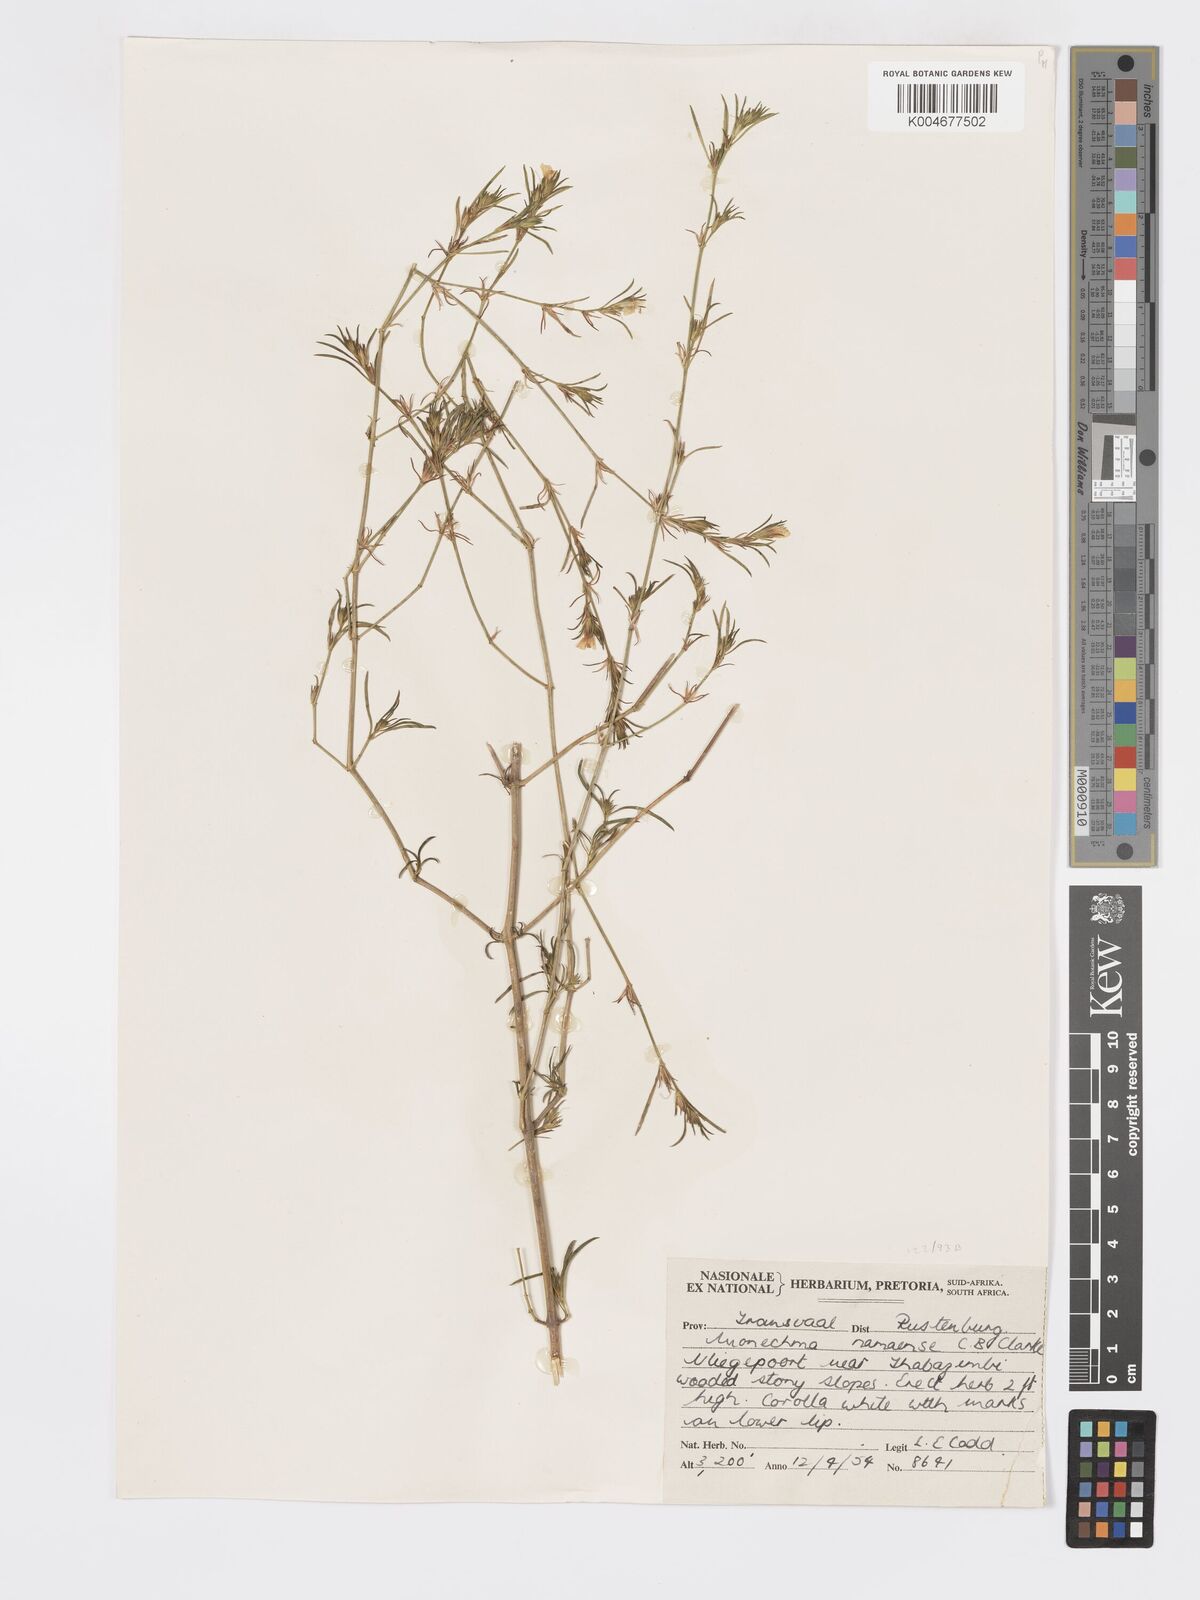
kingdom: Plantae
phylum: Tracheophyta
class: Magnoliopsida
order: Lamiales
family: Acanthaceae
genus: Pogonospermum
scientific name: Pogonospermum
